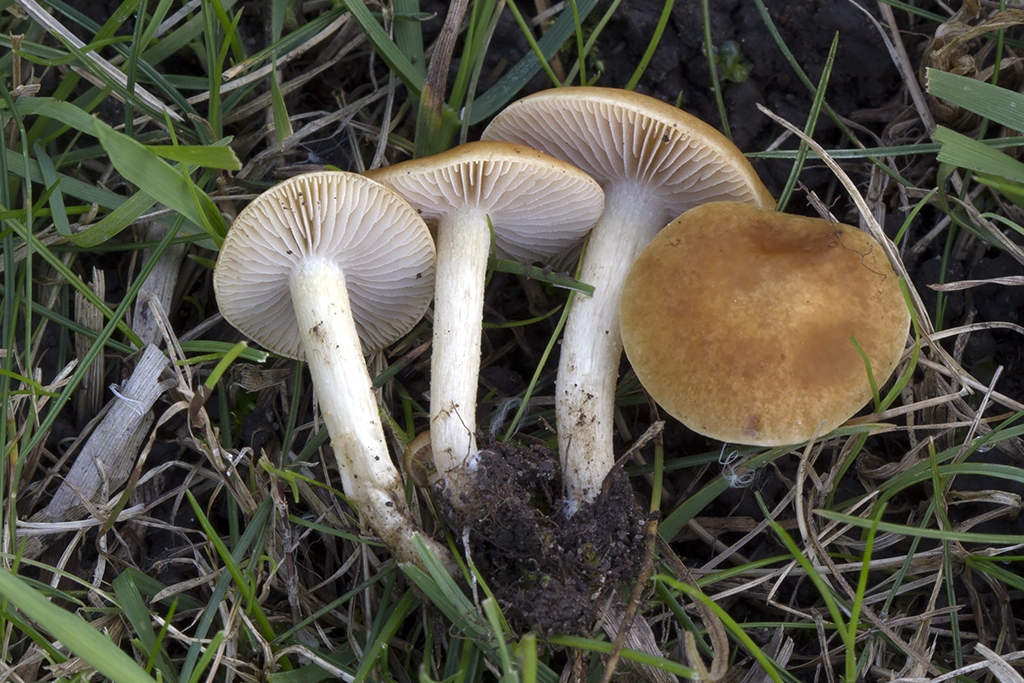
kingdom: Fungi
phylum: Basidiomycota
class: Agaricomycetes
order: Agaricales
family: Strophariaceae
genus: Agrocybe
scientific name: Agrocybe vervacti
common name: lav agerhat
